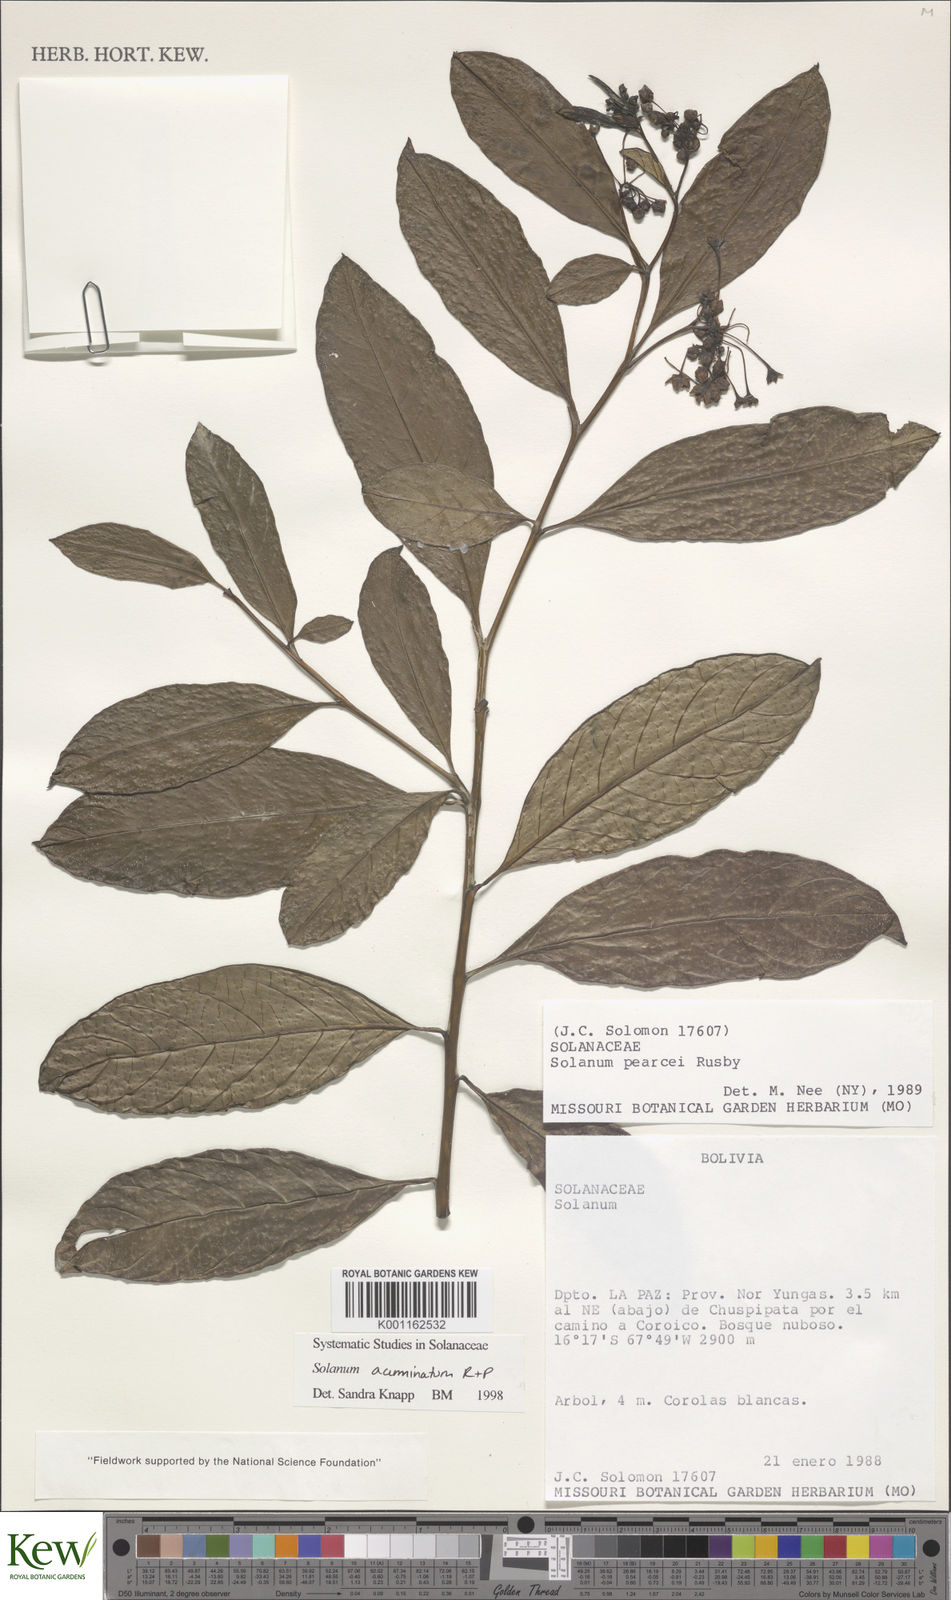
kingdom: Plantae
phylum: Tracheophyta
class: Magnoliopsida
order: Solanales
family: Solanaceae
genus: Solanum
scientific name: Solanum acuminatum
